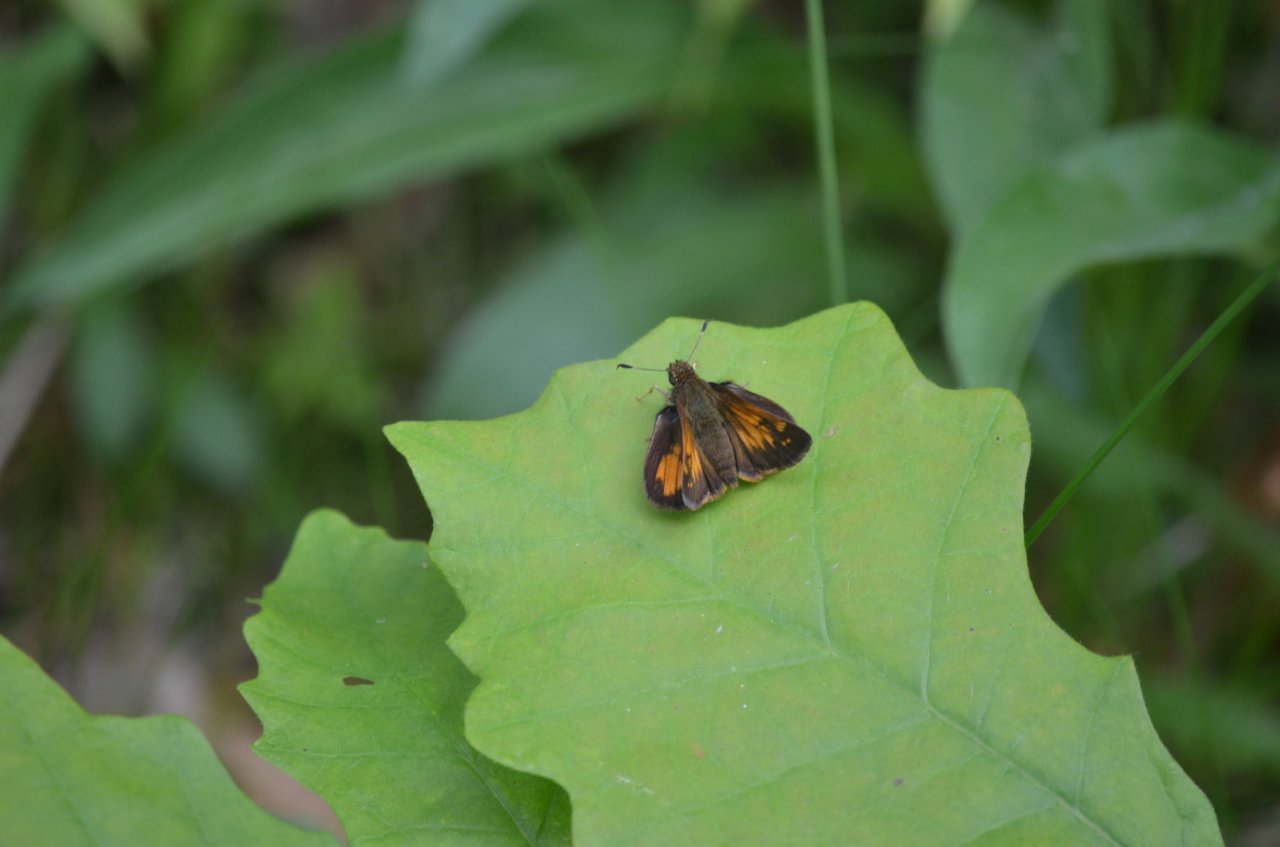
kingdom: Animalia
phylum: Arthropoda
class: Insecta
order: Lepidoptera
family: Hesperiidae
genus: Lon
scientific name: Lon hobomok
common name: Hobomok Skipper
